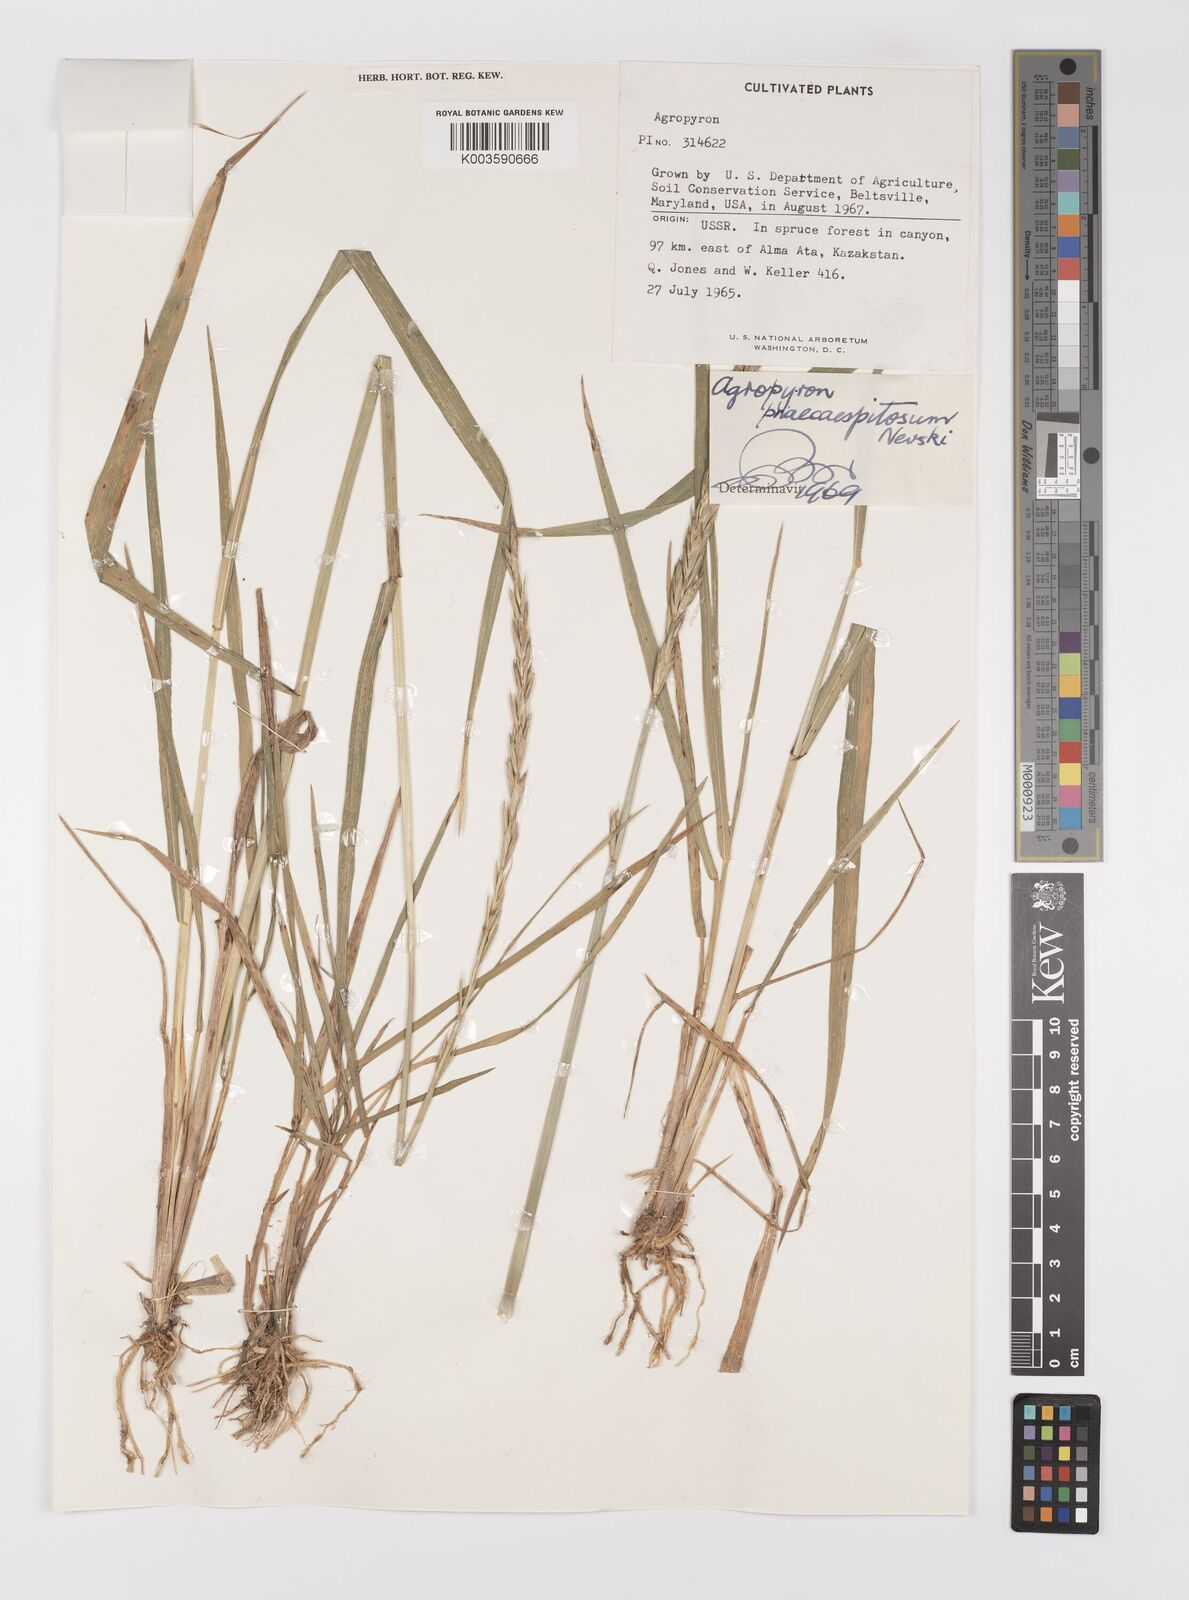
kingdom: Plantae
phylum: Tracheophyta
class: Liliopsida
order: Poales
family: Poaceae
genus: Elymus
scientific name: Elymus mutabilis
